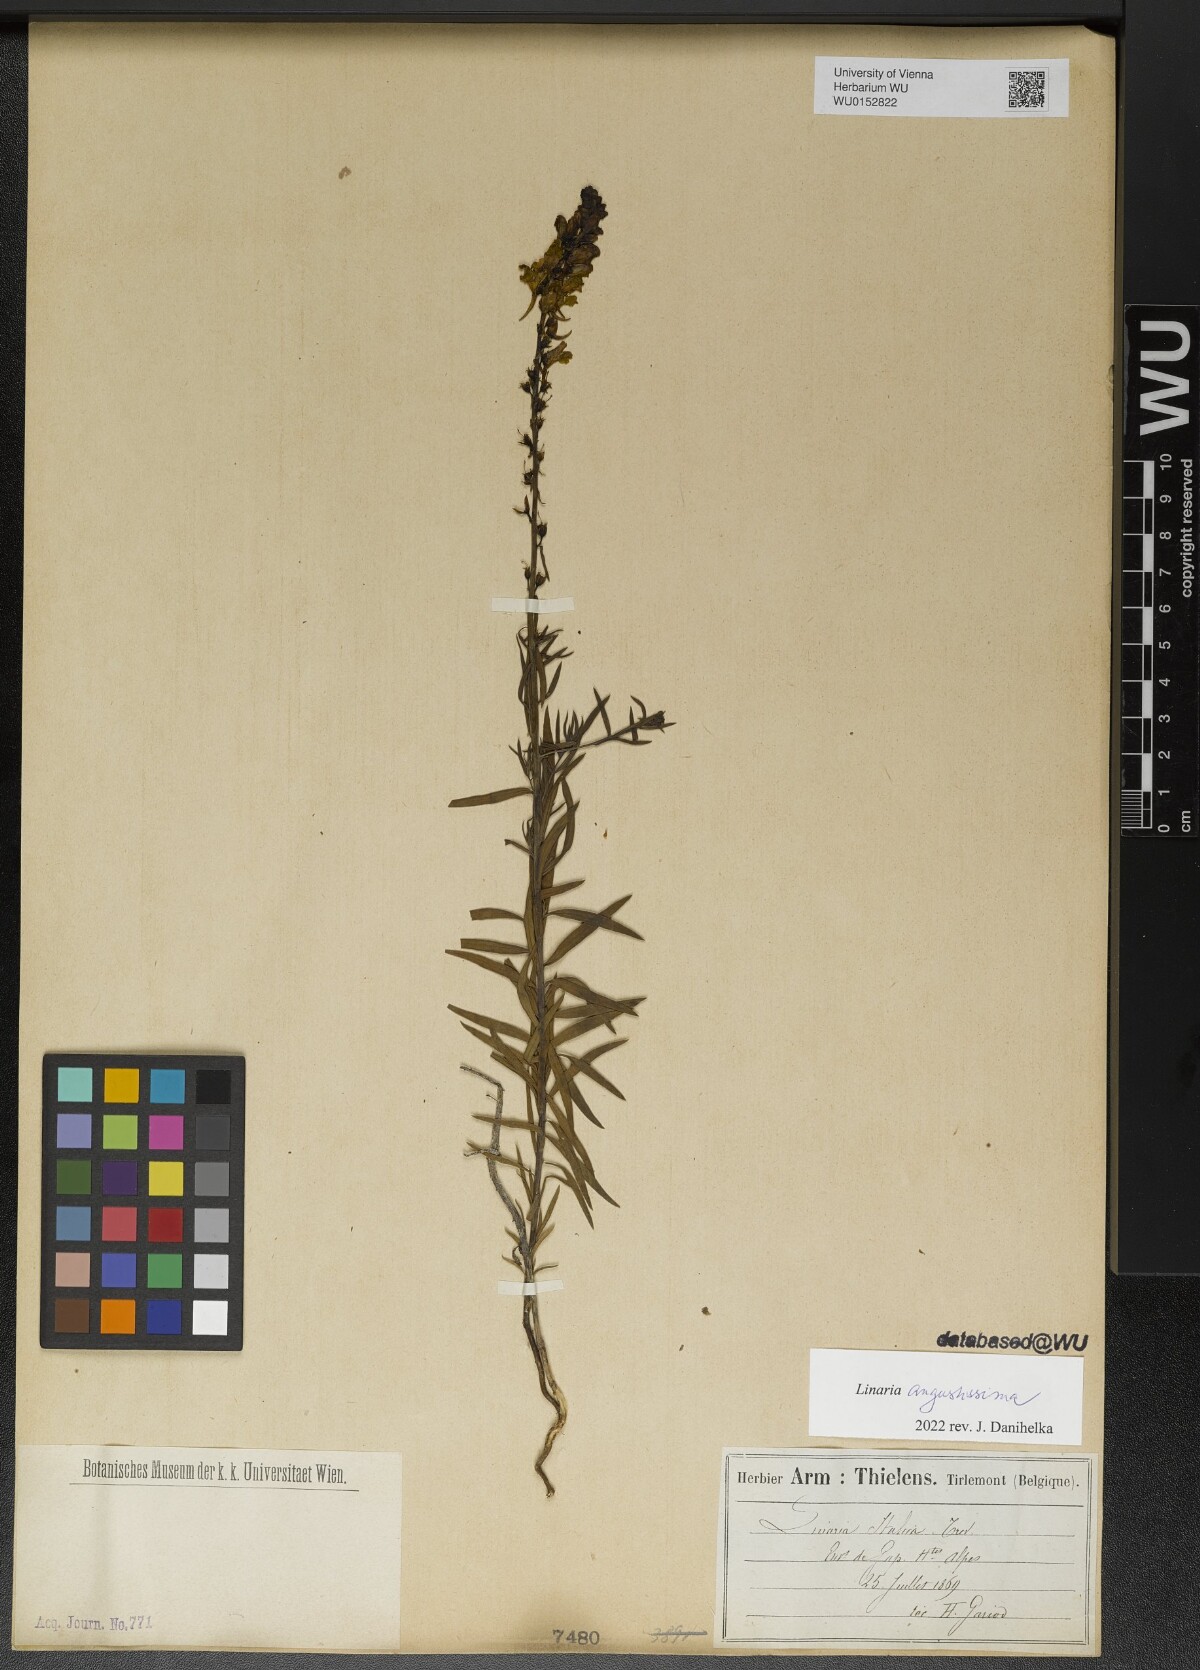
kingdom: Plantae
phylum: Tracheophyta
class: Magnoliopsida
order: Lamiales
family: Plantaginaceae
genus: Linaria
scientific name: Linaria angustissima
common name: Italian toadflax
